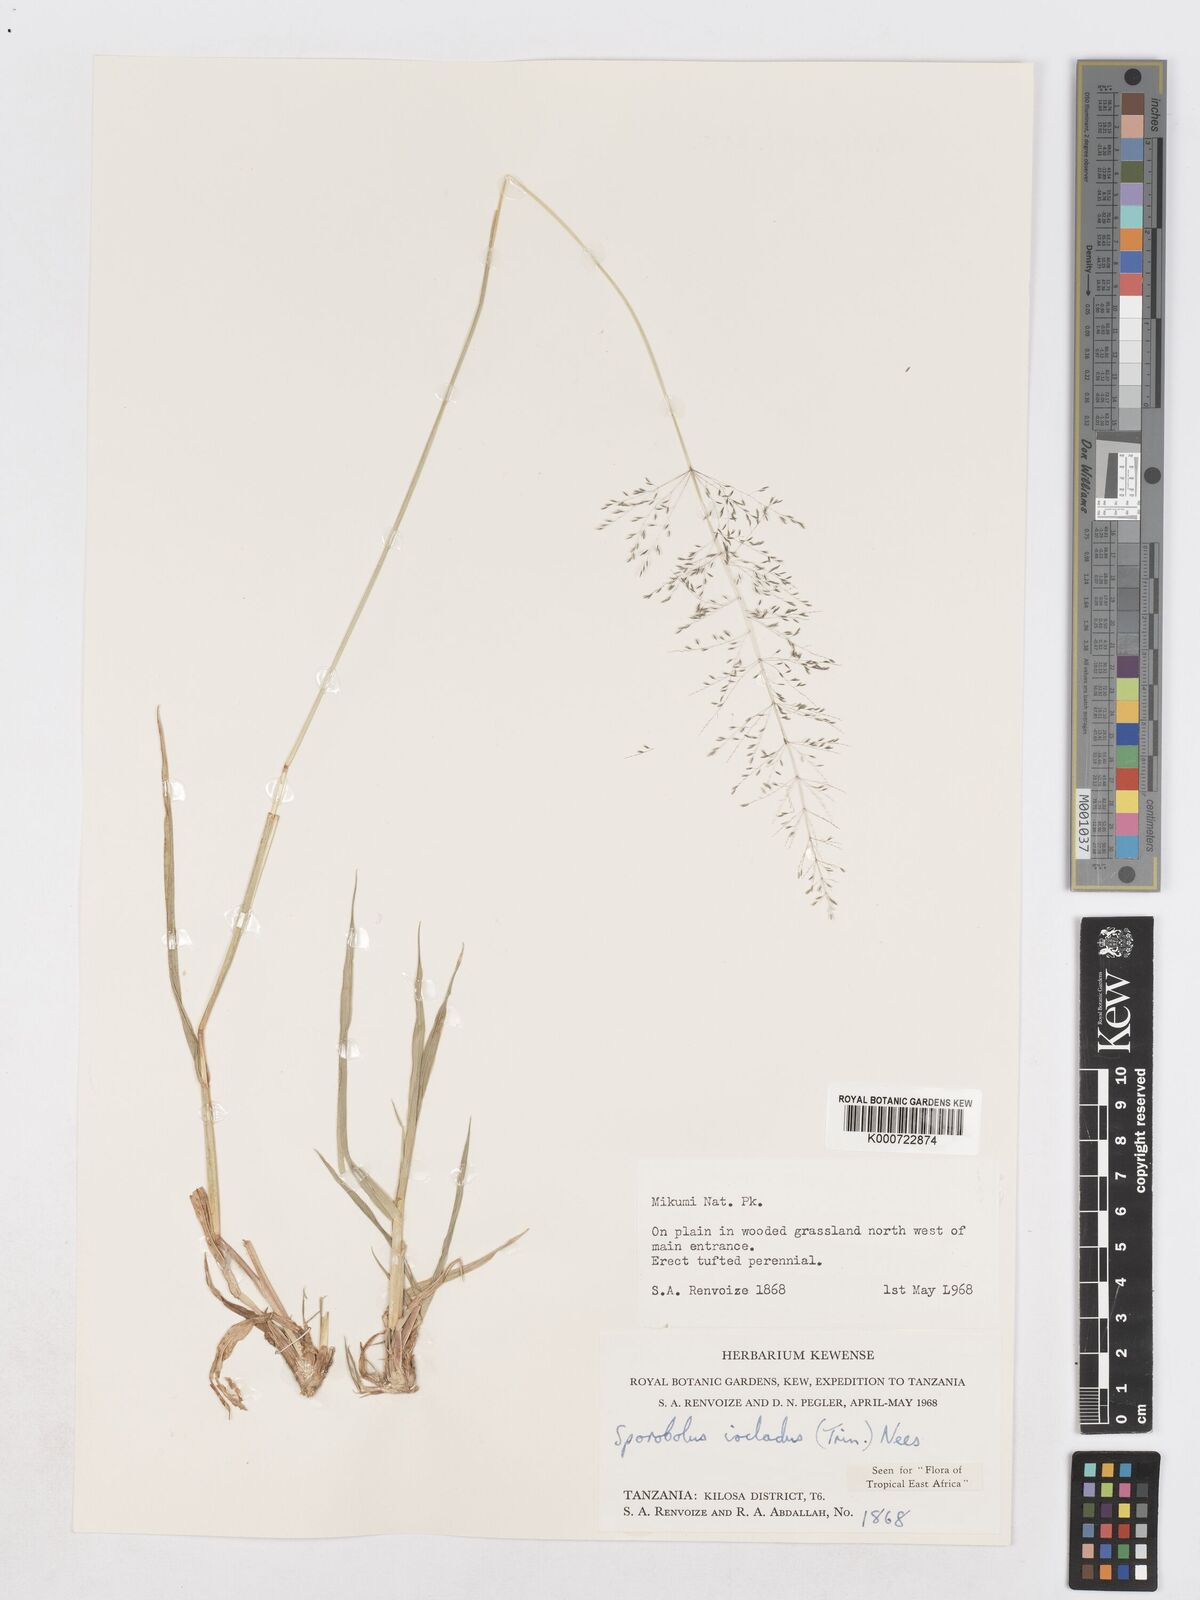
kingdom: Plantae
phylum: Tracheophyta
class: Liliopsida
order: Poales
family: Poaceae
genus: Sporobolus
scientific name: Sporobolus ioclados
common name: Pan dropseed
